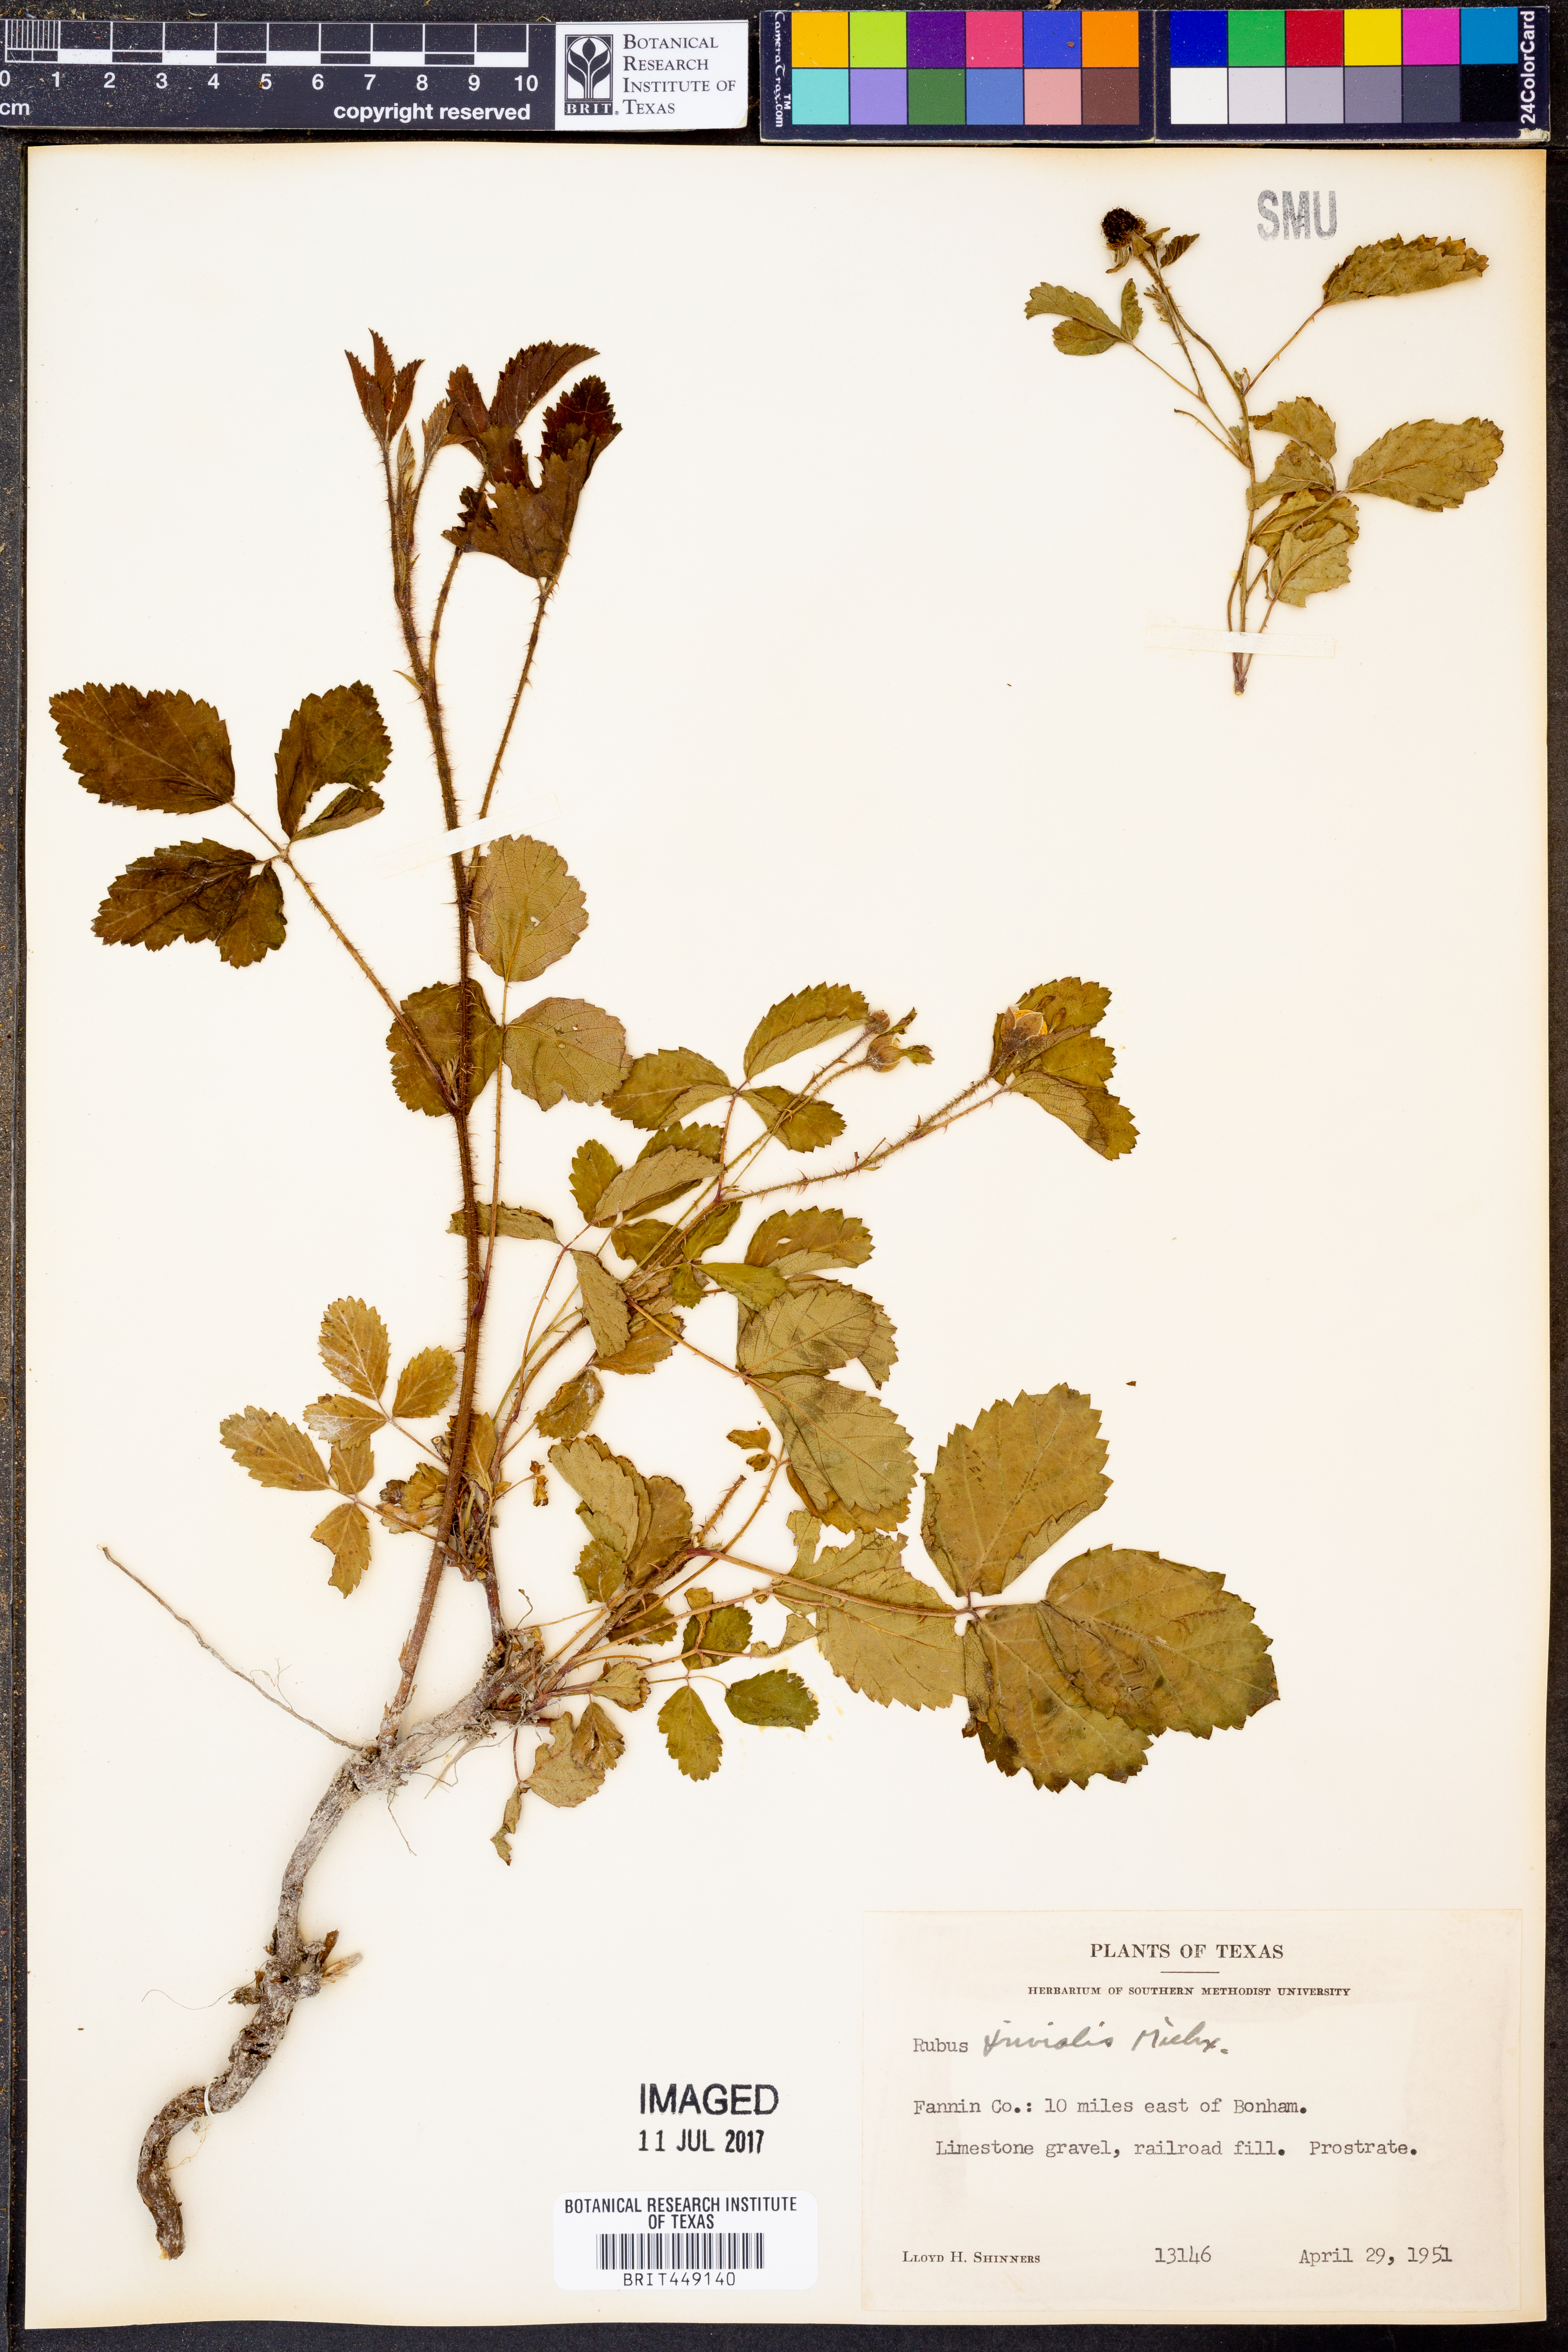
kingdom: Plantae
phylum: Tracheophyta
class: Magnoliopsida
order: Rosales
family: Rosaceae
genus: Rubus
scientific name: Rubus trivialis
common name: Southern dewberry
